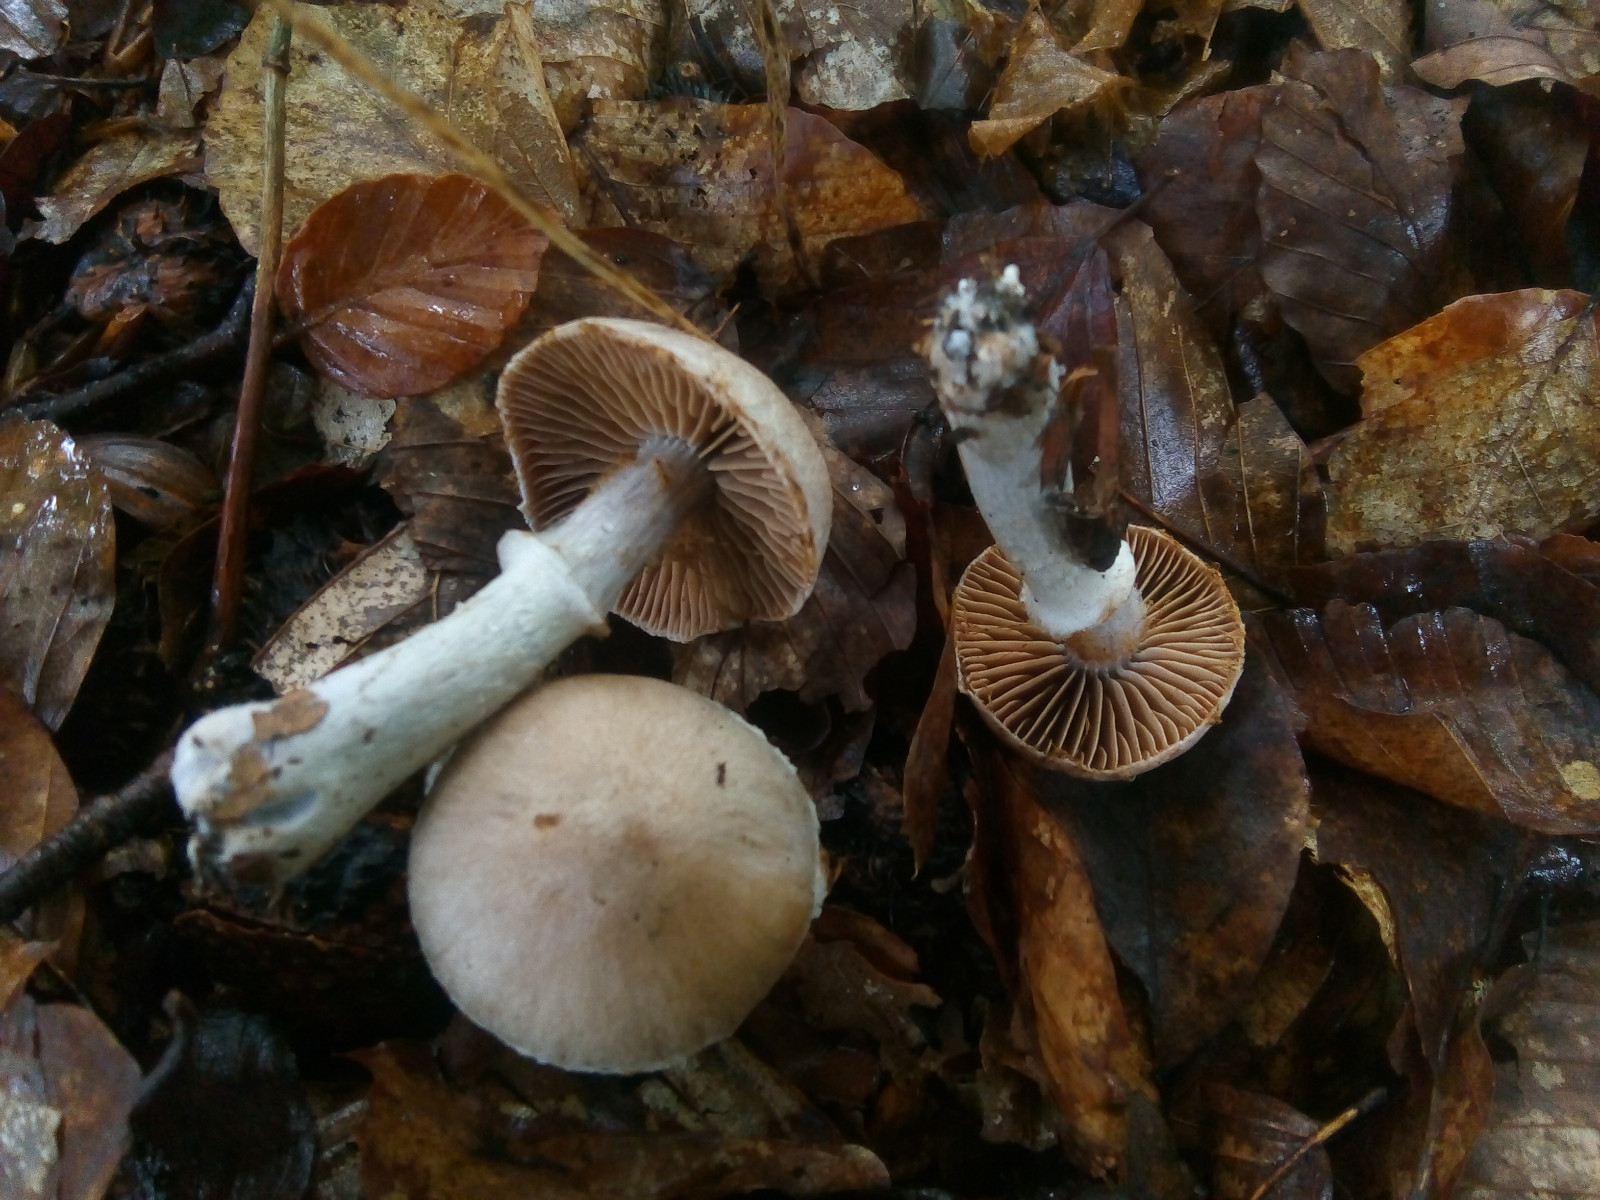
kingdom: Fungi
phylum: Basidiomycota
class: Agaricomycetes
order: Agaricales
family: Cortinariaceae
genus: Cortinarius
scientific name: Cortinarius torvus
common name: champignonagtig slørhat
